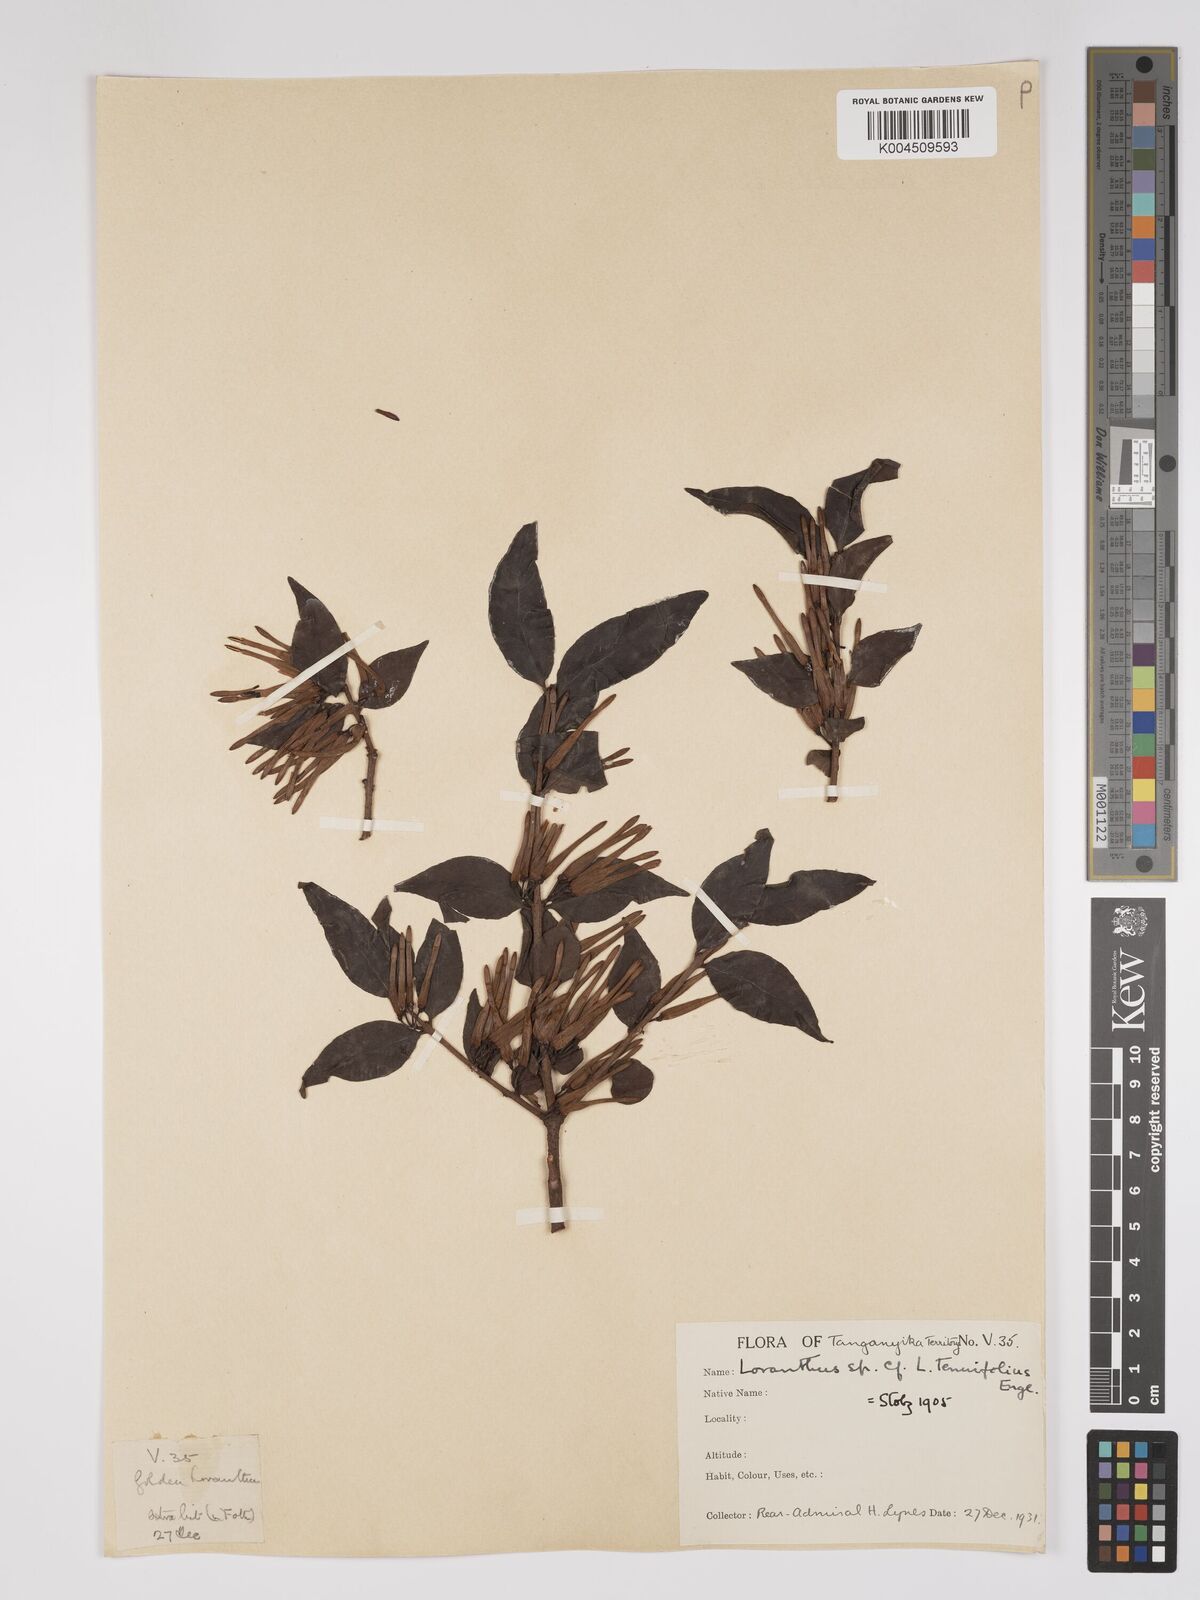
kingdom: Plantae
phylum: Tracheophyta
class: Magnoliopsida
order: Santalales
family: Loranthaceae
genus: Englerina
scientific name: Englerina inaequilatera
